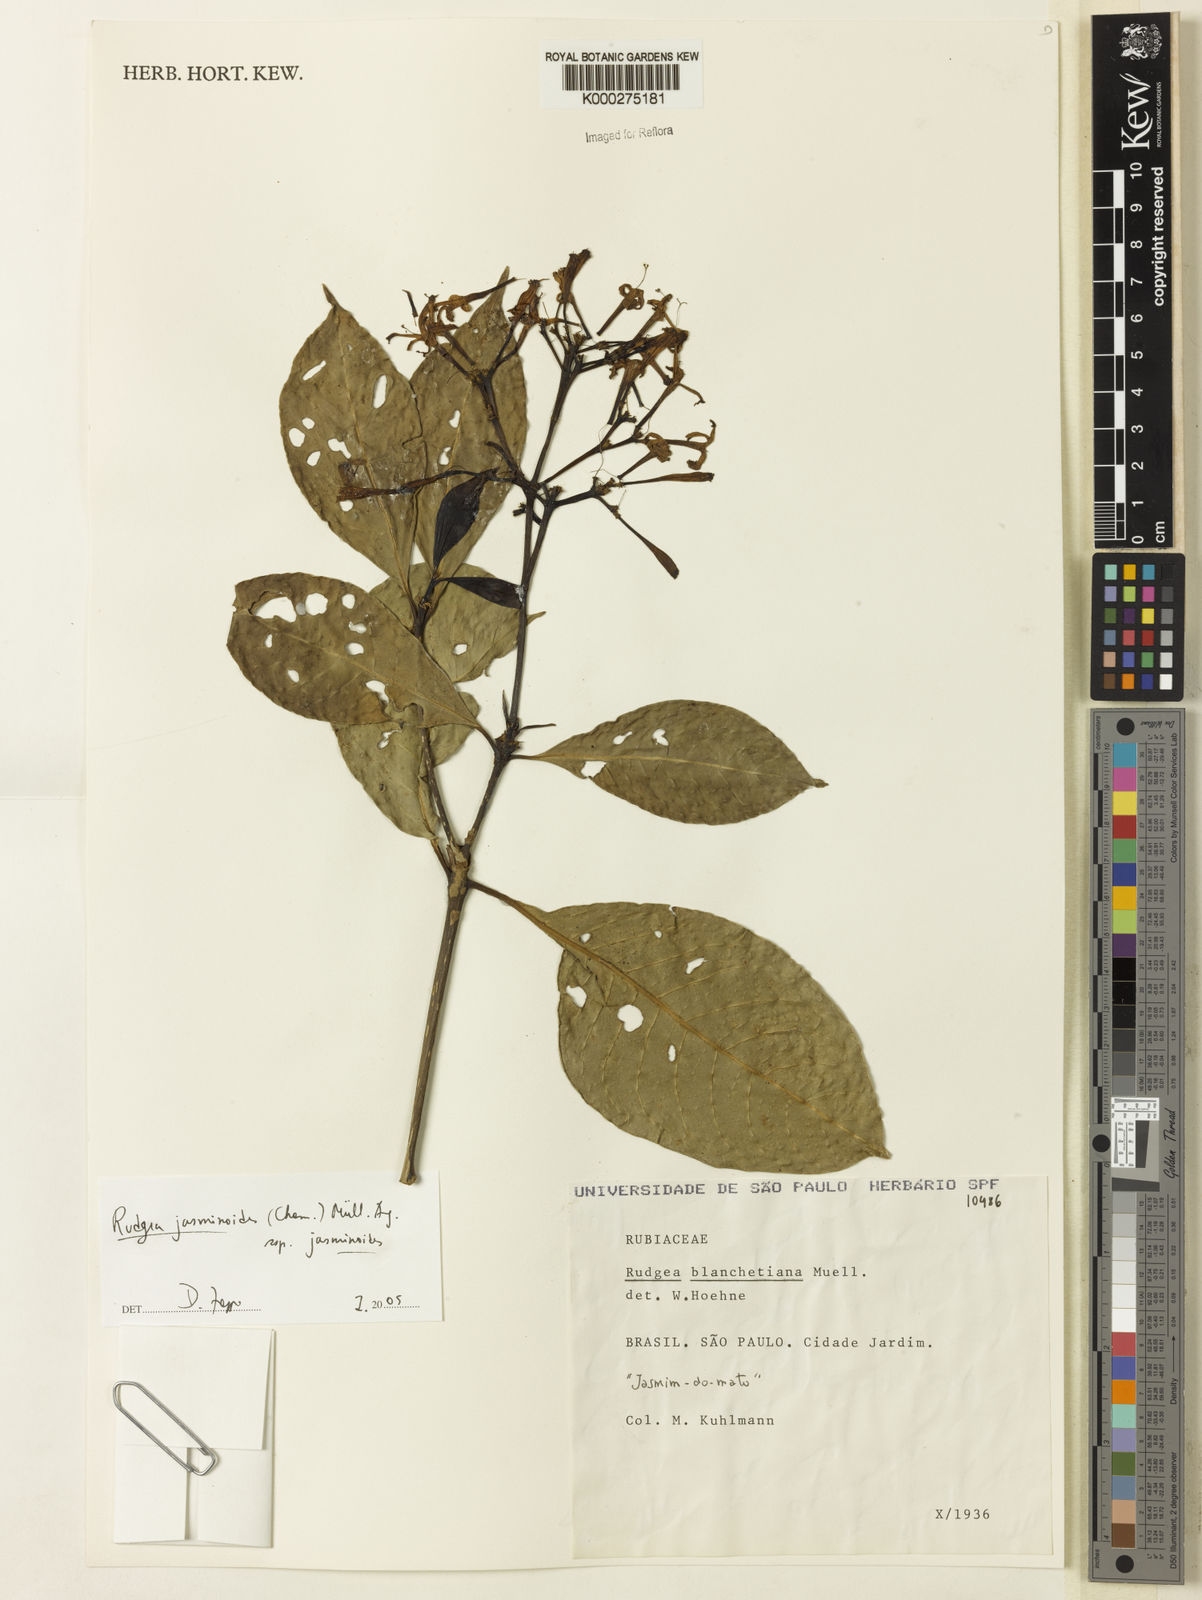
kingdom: Plantae
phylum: Tracheophyta
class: Magnoliopsida
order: Gentianales
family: Rubiaceae
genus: Rudgea
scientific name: Rudgea jasminoides
